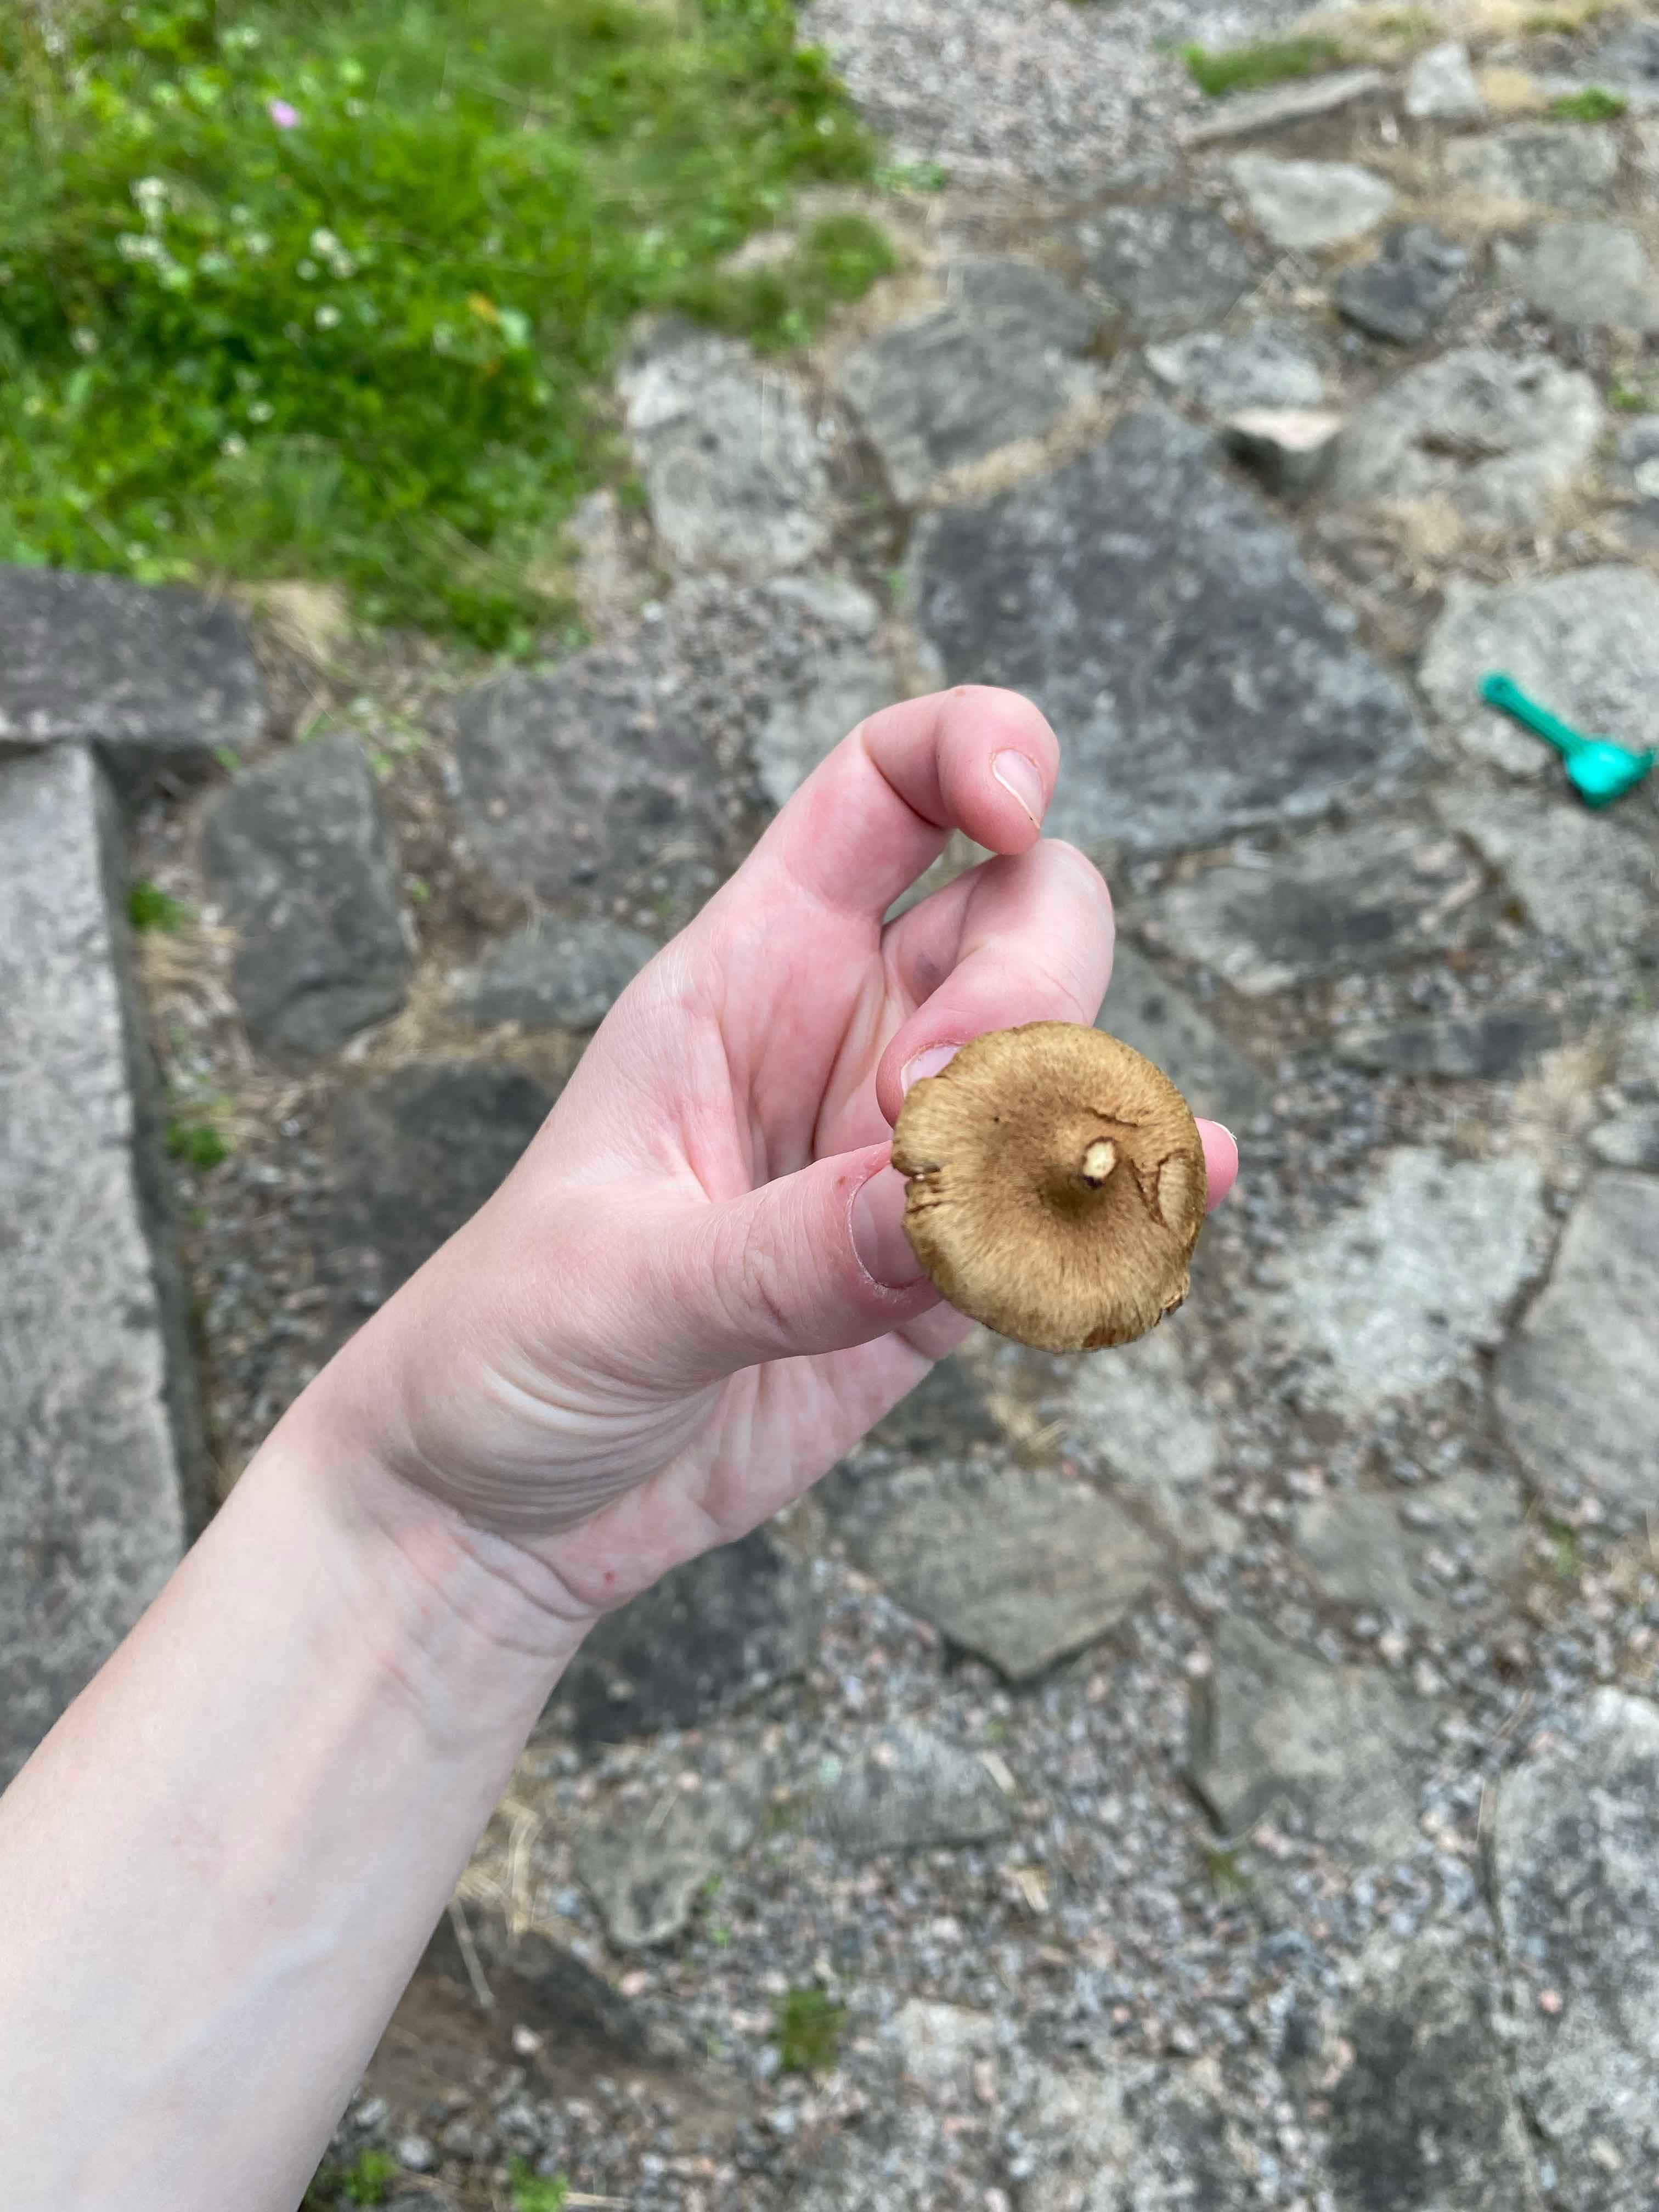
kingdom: Fungi
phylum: Basidiomycota
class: Agaricomycetes
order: Agaricales
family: Inocybaceae
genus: Mallocybe
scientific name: Mallocybe
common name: Trævlhat
